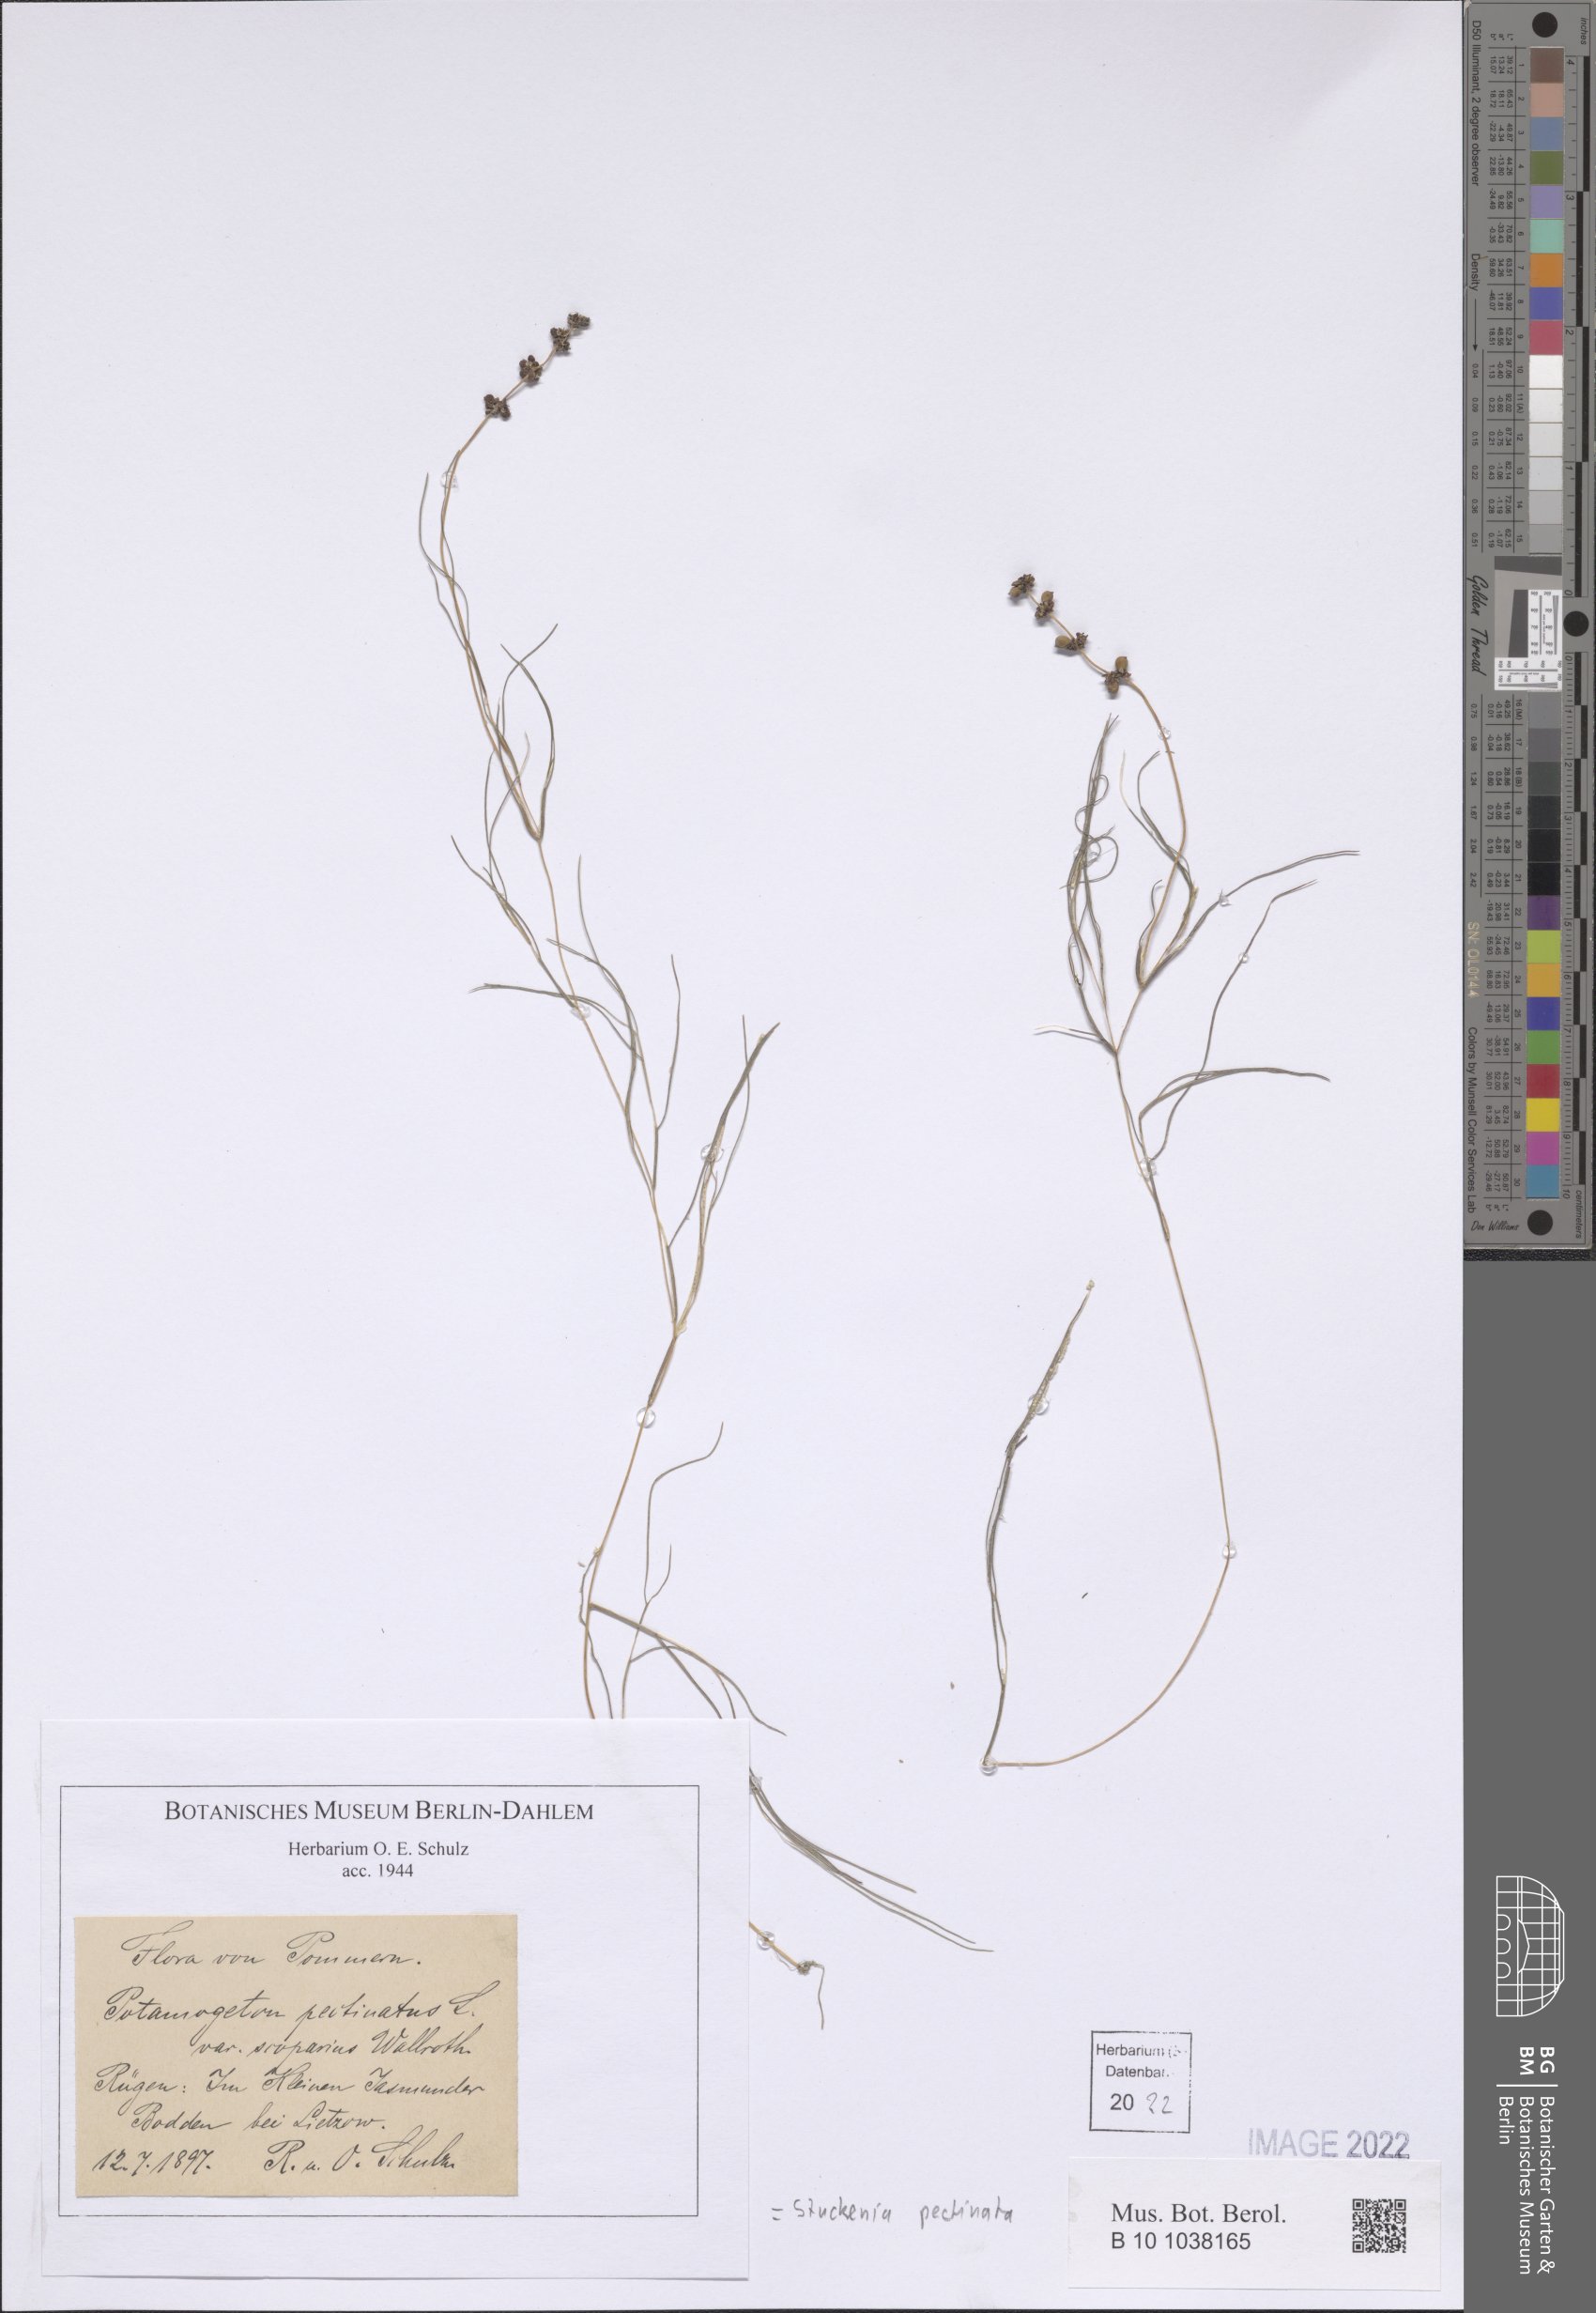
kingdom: Plantae
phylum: Tracheophyta
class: Liliopsida
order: Alismatales
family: Potamogetonaceae
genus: Stuckenia
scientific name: Stuckenia pectinata
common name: Sago pondweed
